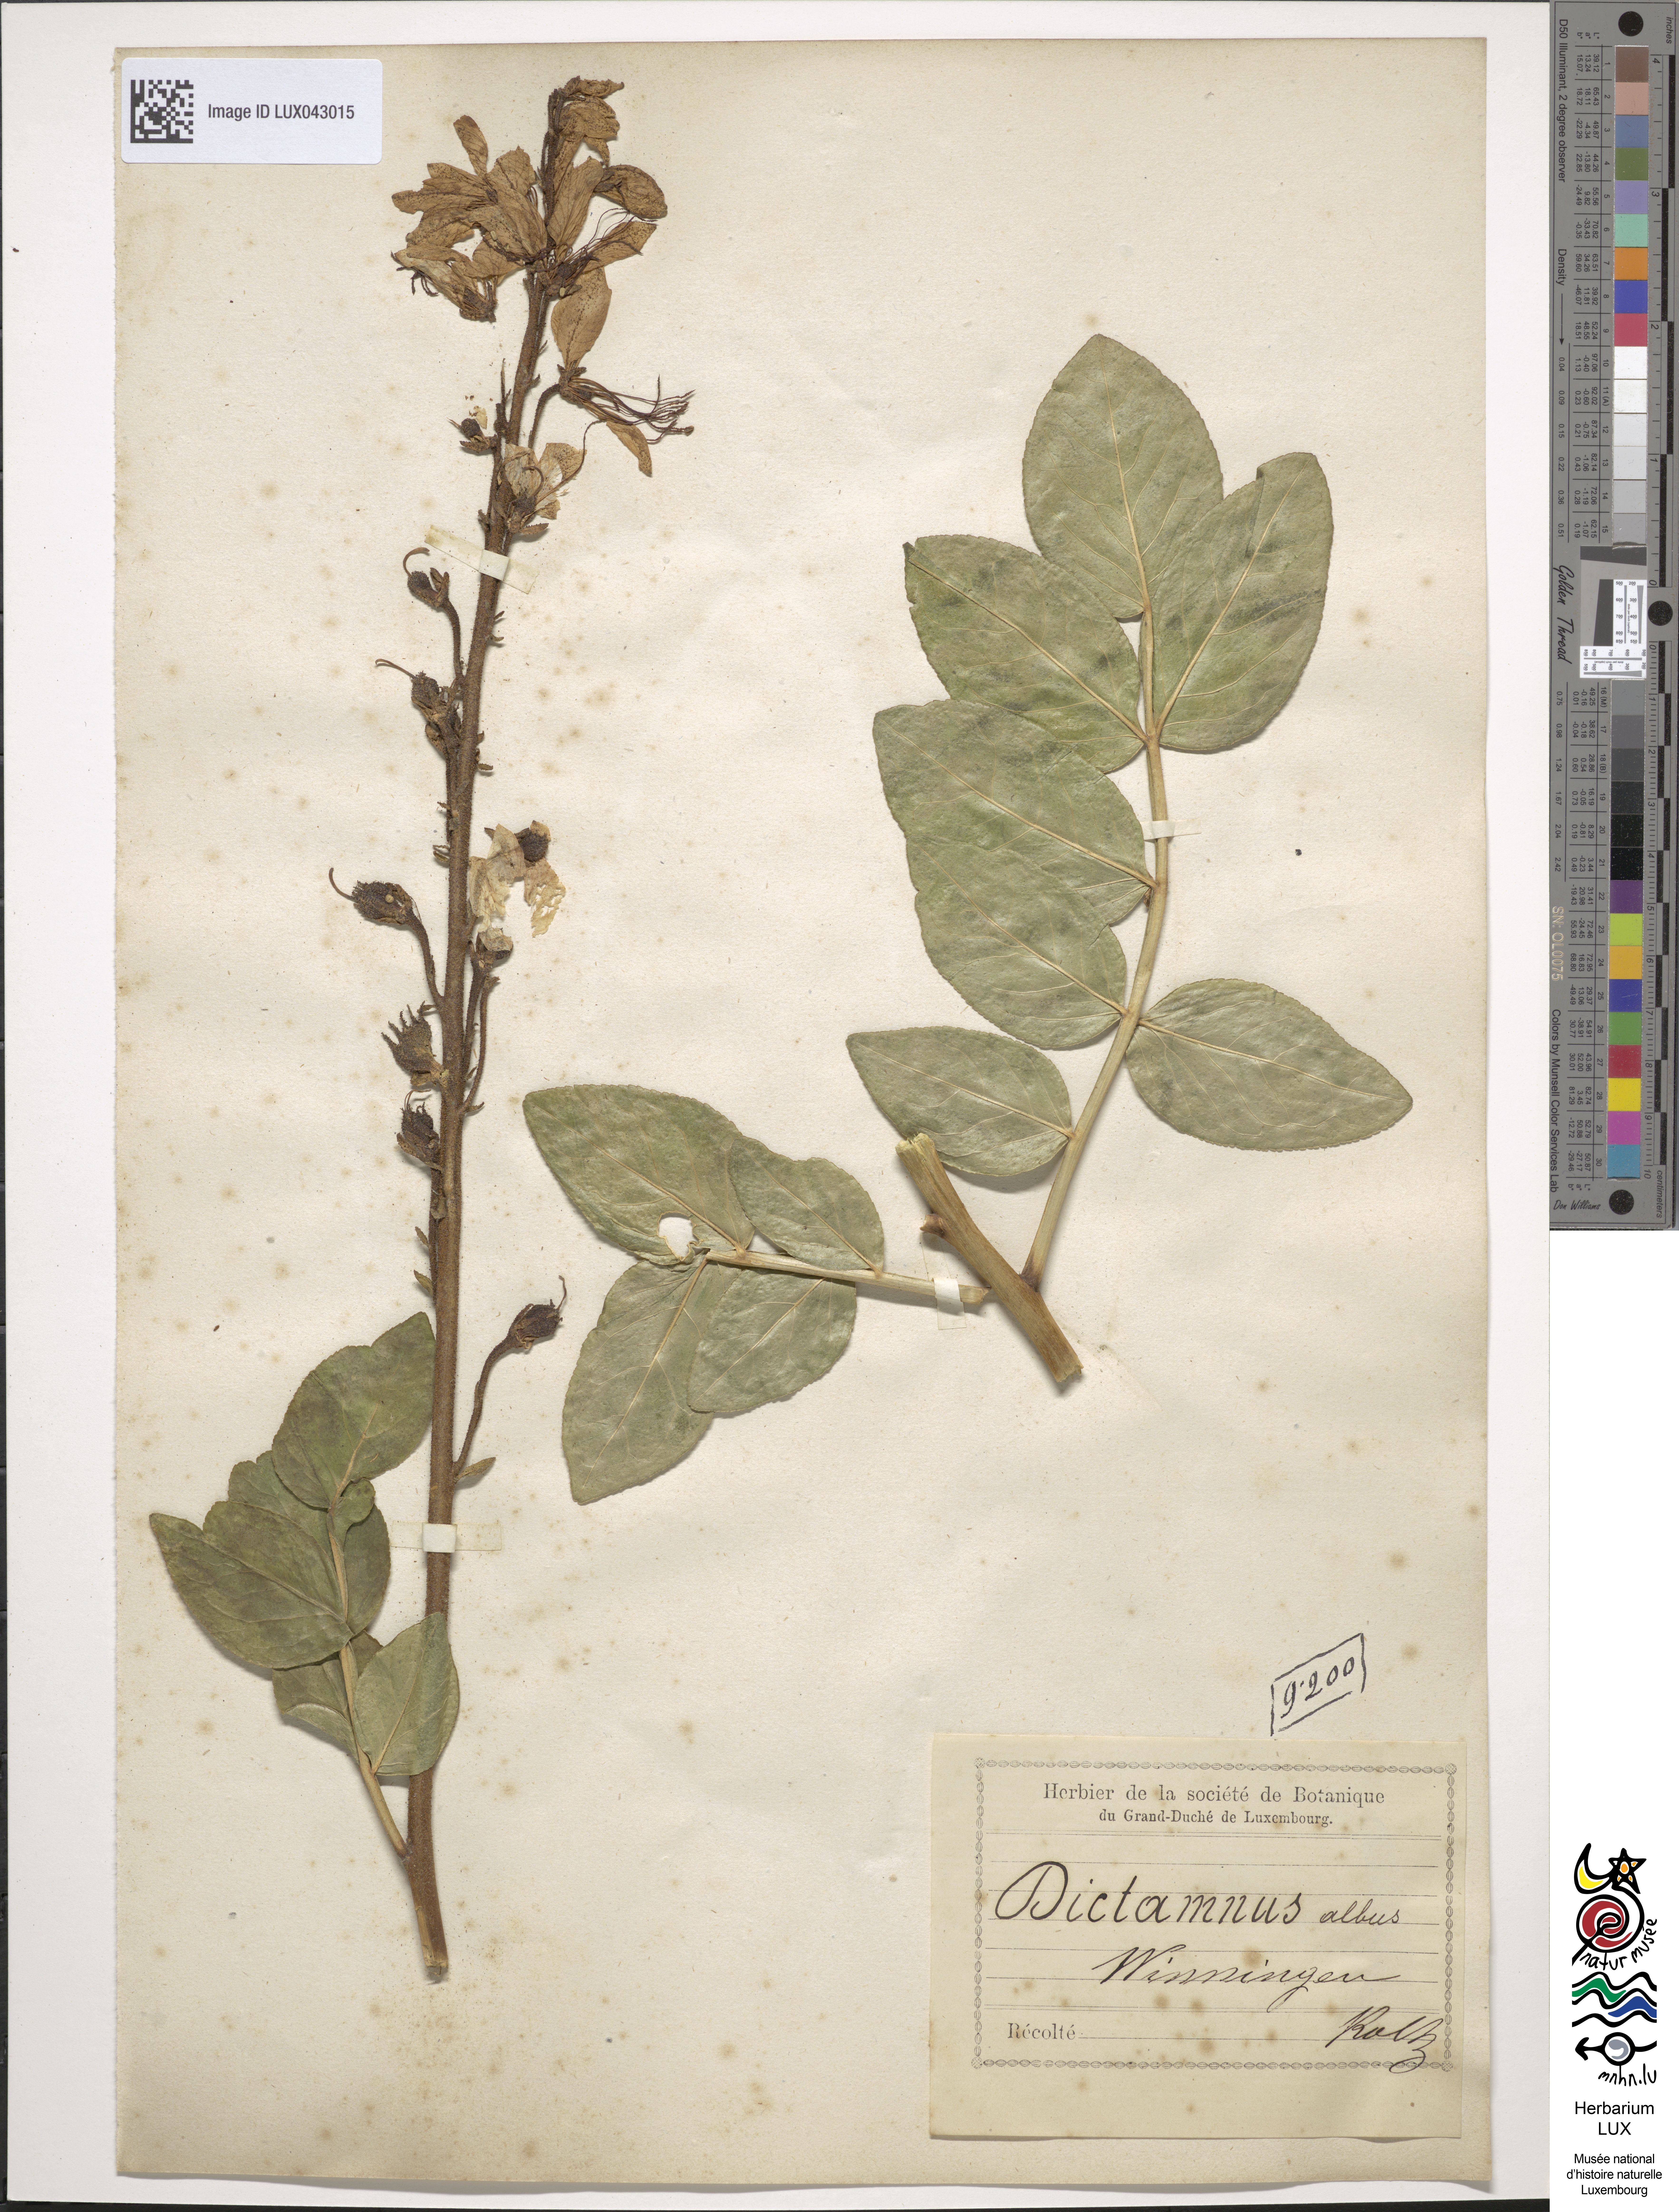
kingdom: Plantae
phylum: Tracheophyta
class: Magnoliopsida
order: Sapindales
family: Rutaceae
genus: Dictamnus
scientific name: Dictamnus albus
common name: Gasplant
